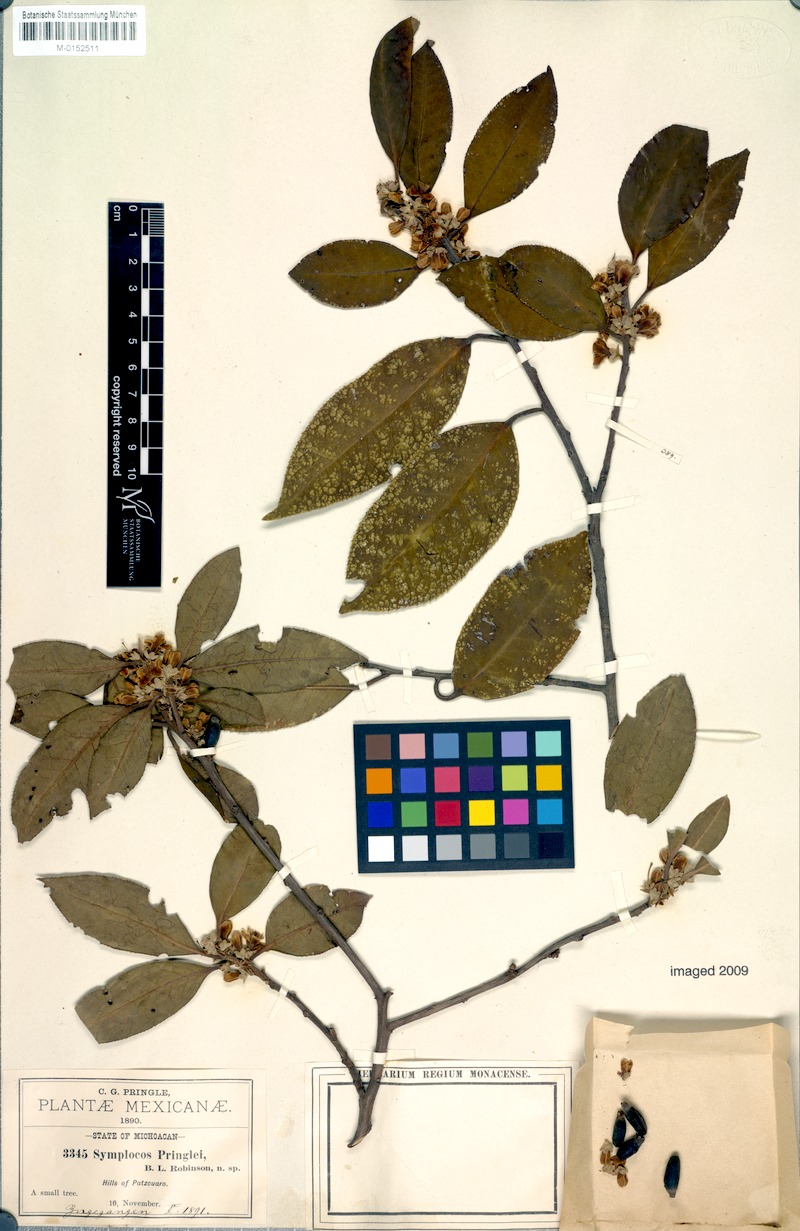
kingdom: Plantae
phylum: Tracheophyta
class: Magnoliopsida
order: Ericales
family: Symplocaceae
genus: Symplocos
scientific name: Symplocos citrea
